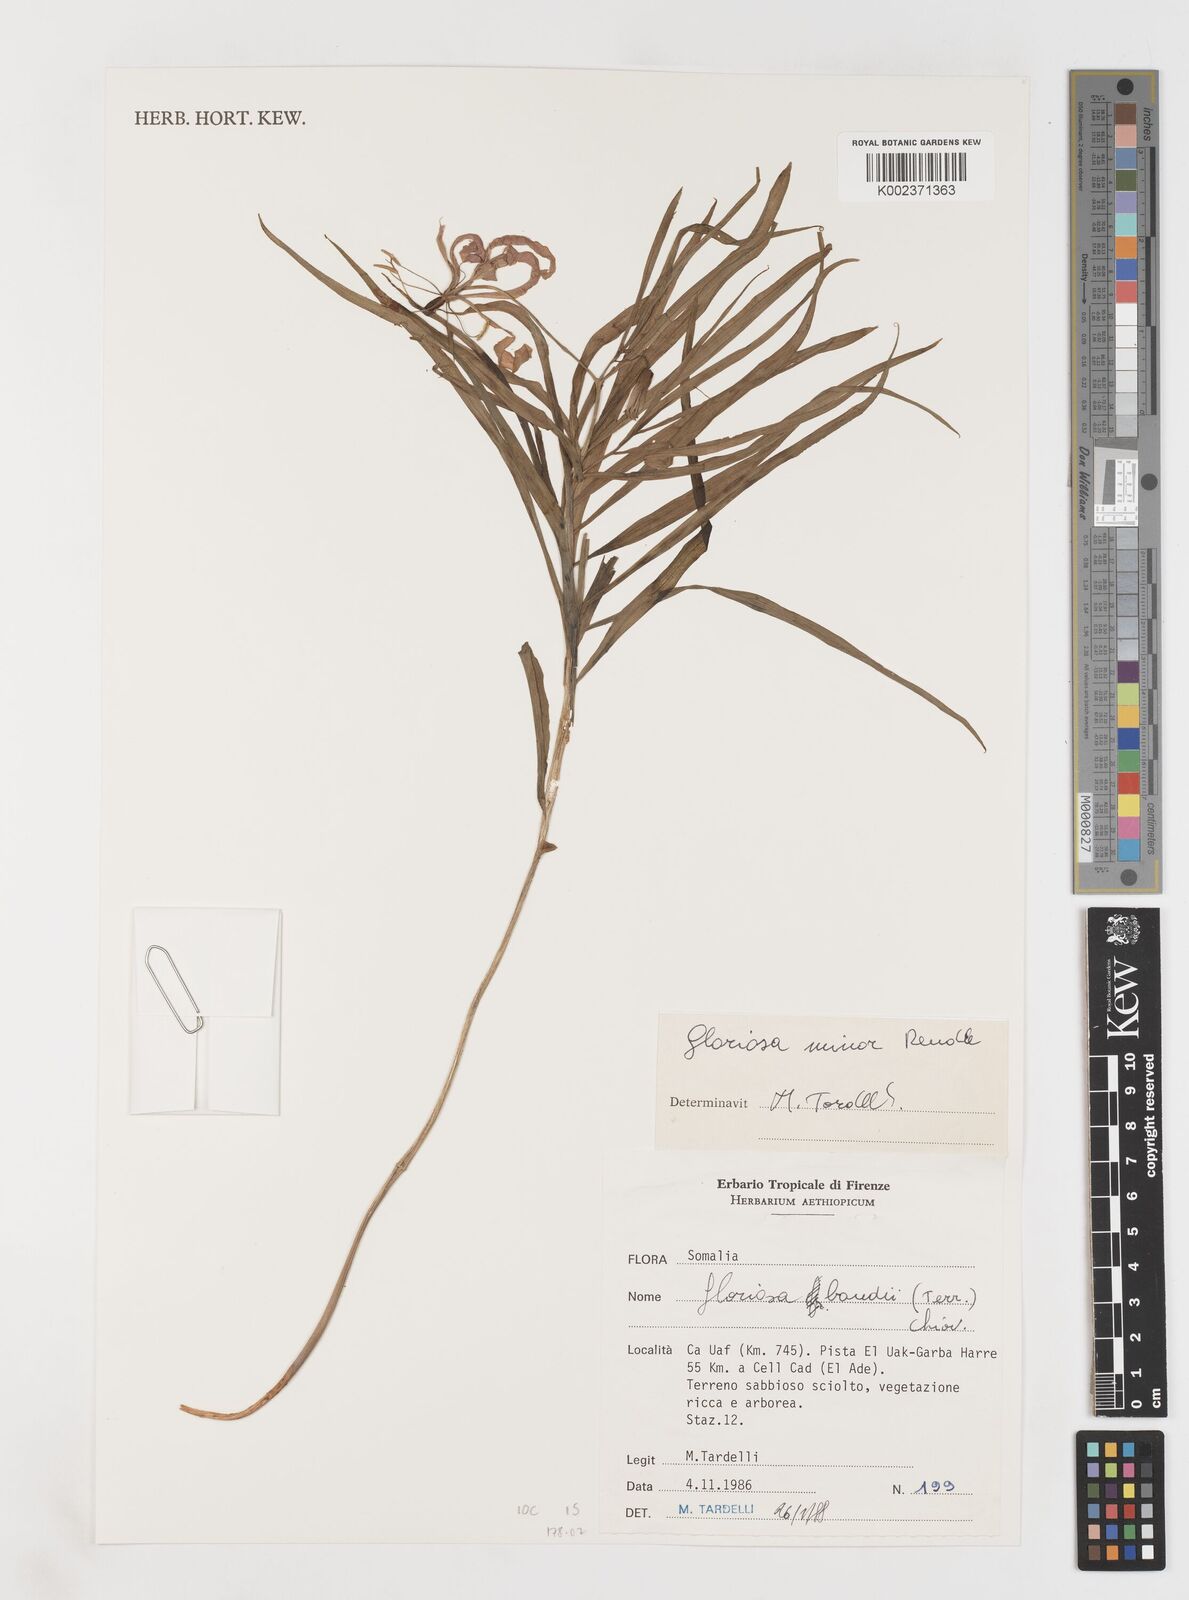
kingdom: Plantae
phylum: Tracheophyta
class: Liliopsida
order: Liliales
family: Colchicaceae
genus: Gloriosa
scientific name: Gloriosa baudii
